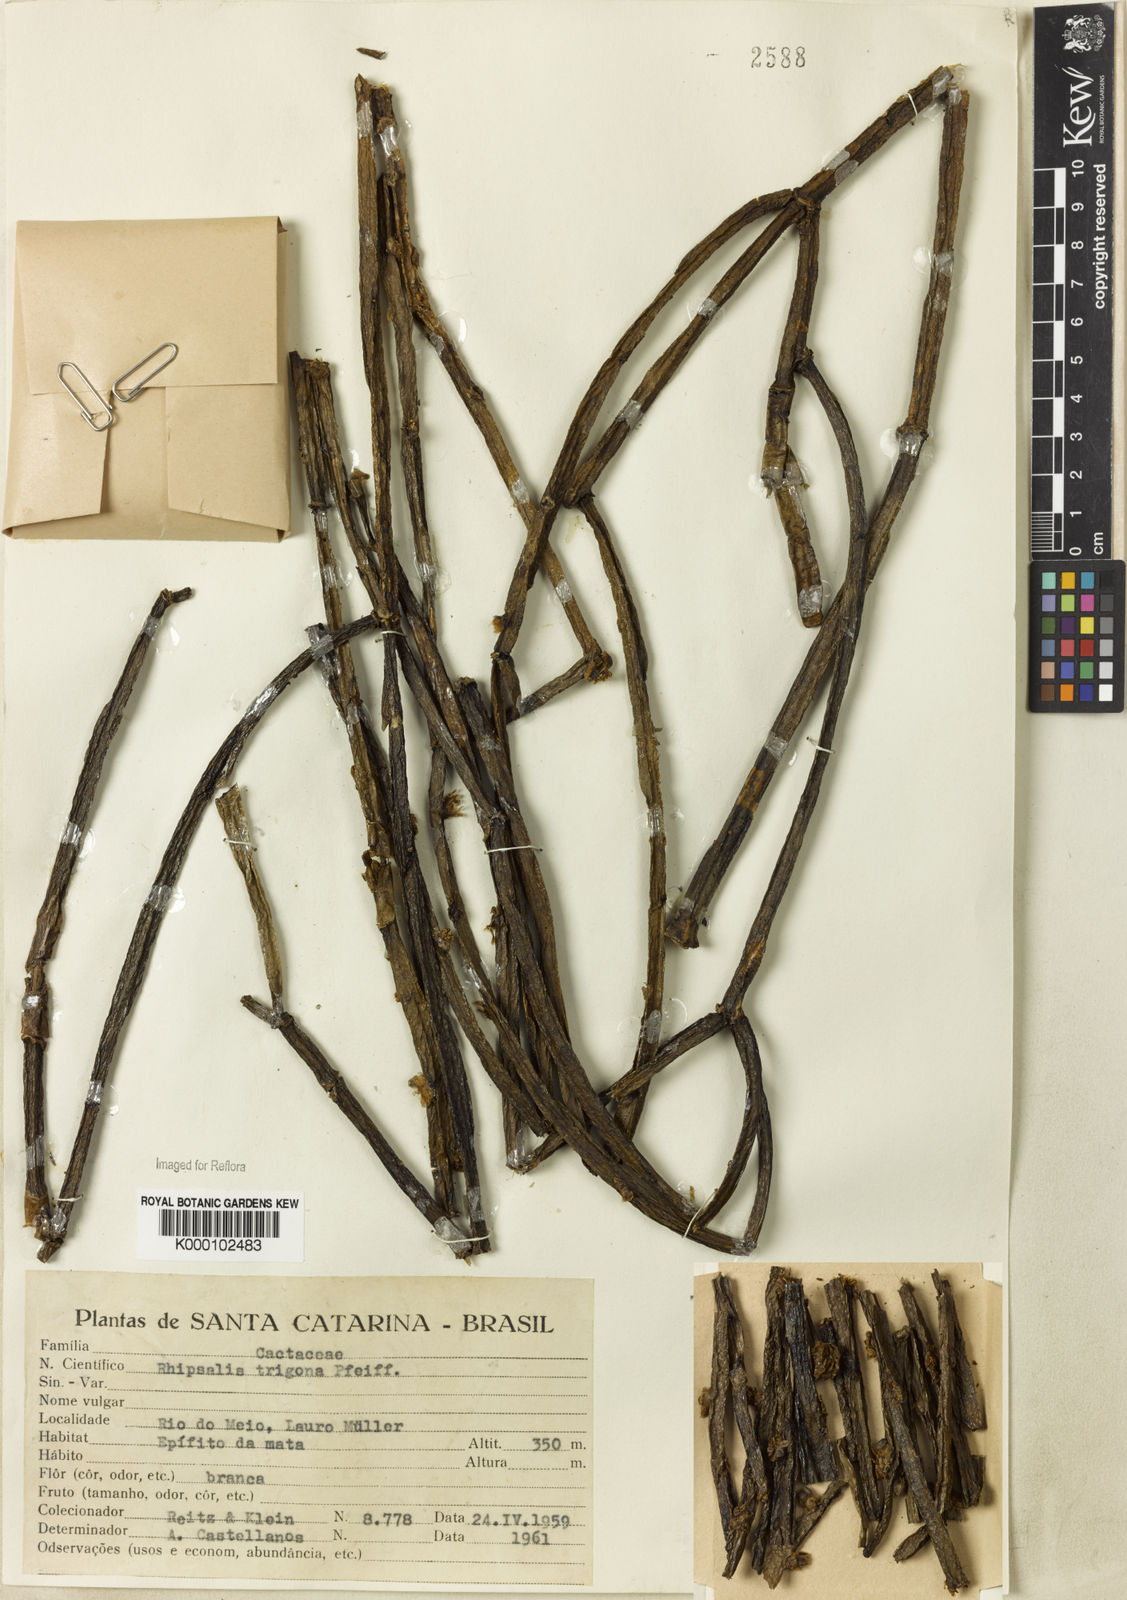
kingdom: Plantae
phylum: Tracheophyta
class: Magnoliopsida
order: Caryophyllales
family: Cactaceae
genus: Rhipsalis
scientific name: Rhipsalis trigona
